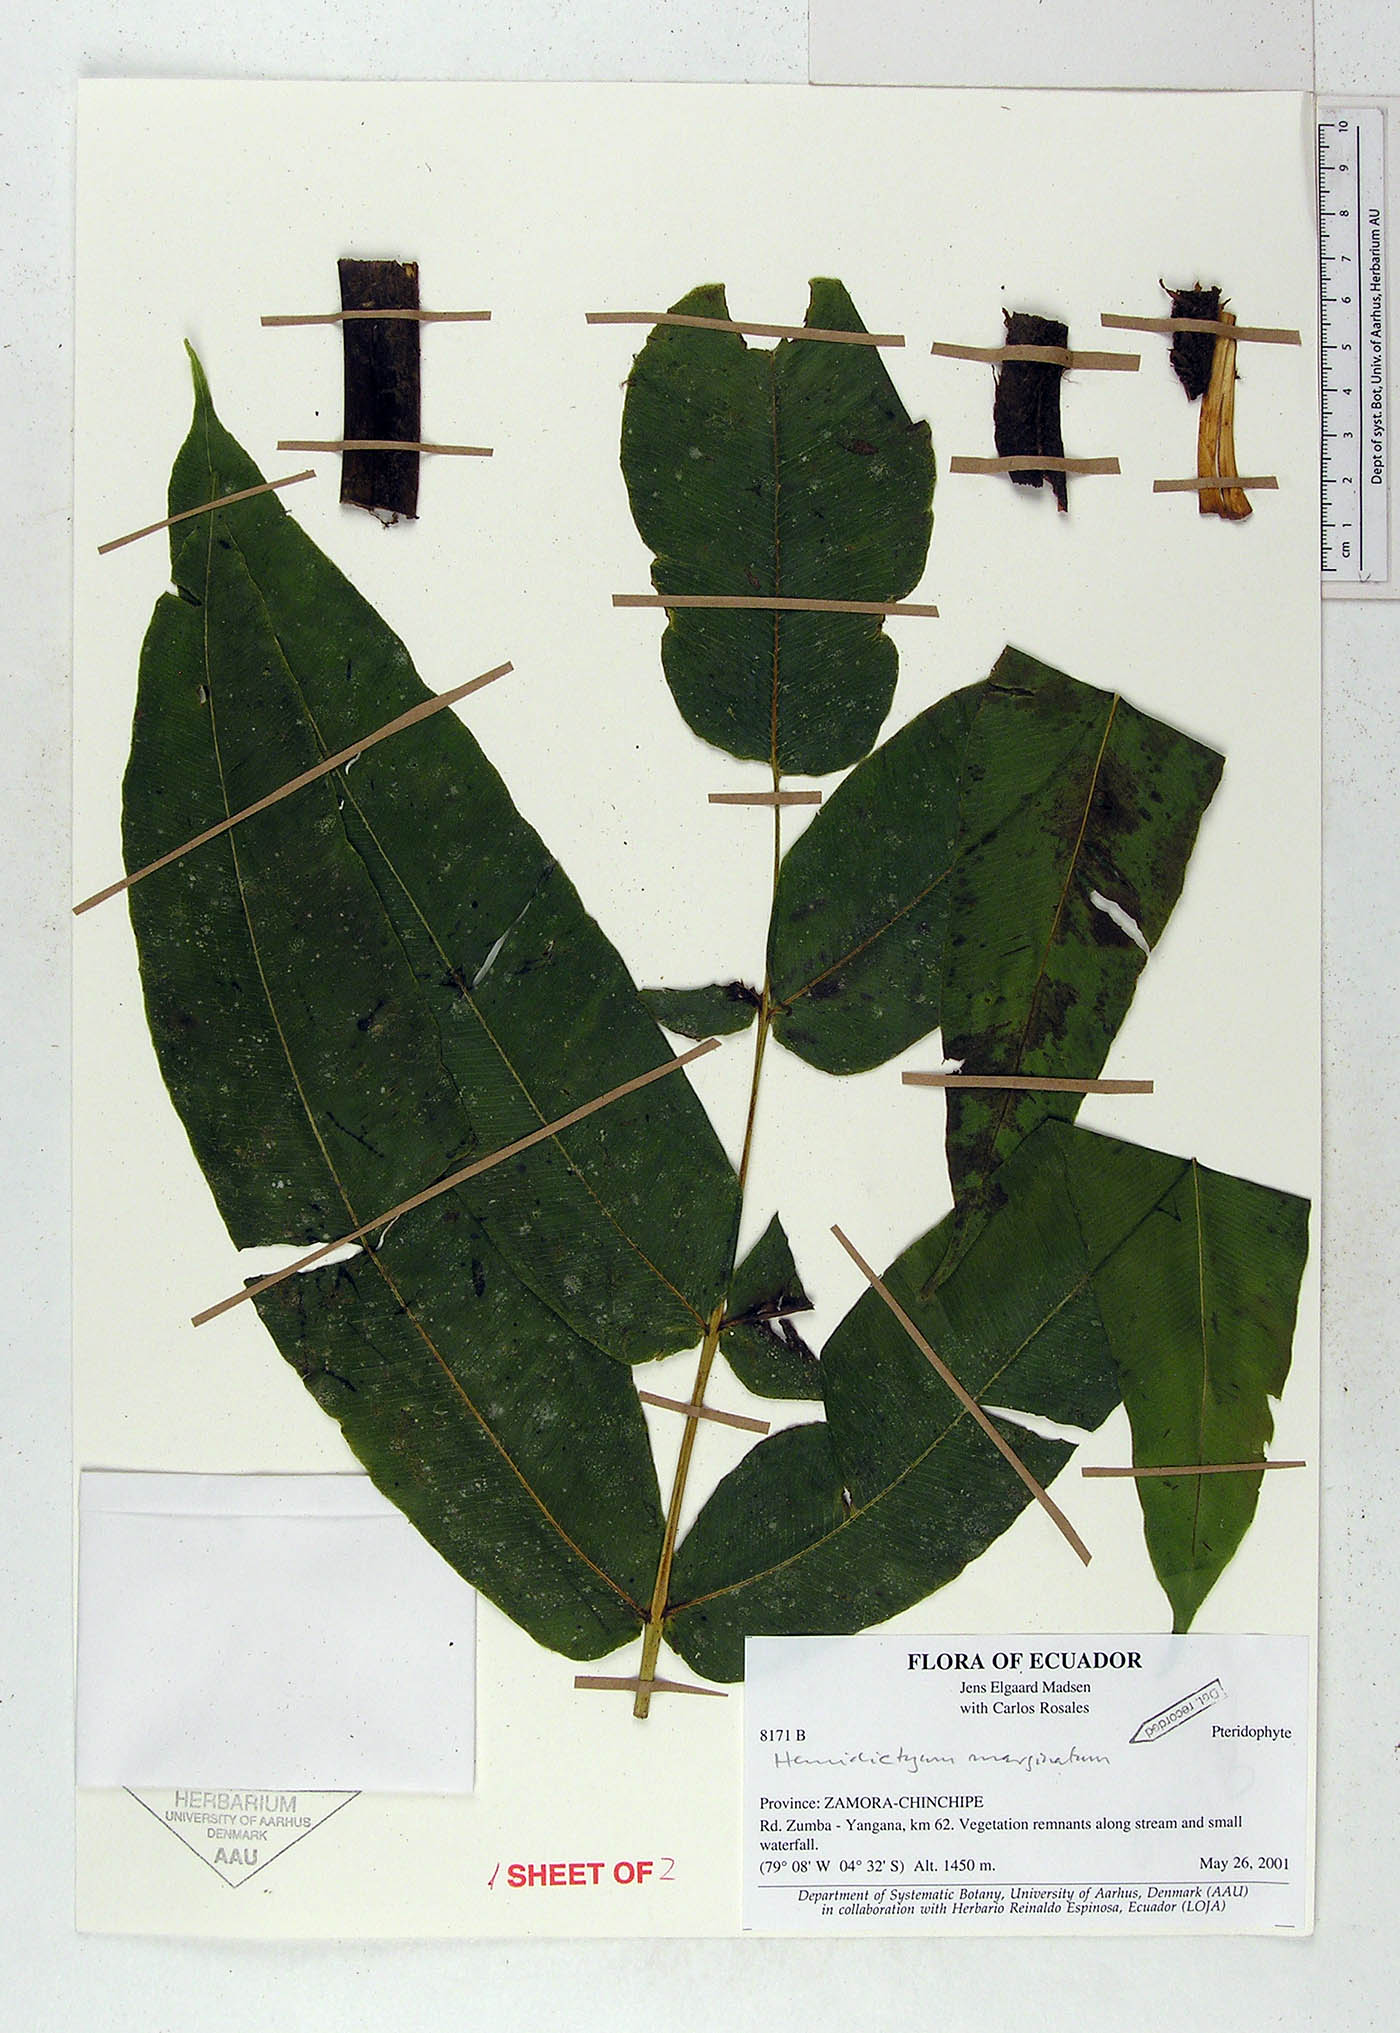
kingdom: Plantae
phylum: Tracheophyta
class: Polypodiopsida
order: Polypodiales
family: Hemidictyaceae
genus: Hemidictyum
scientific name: Hemidictyum marginatum
